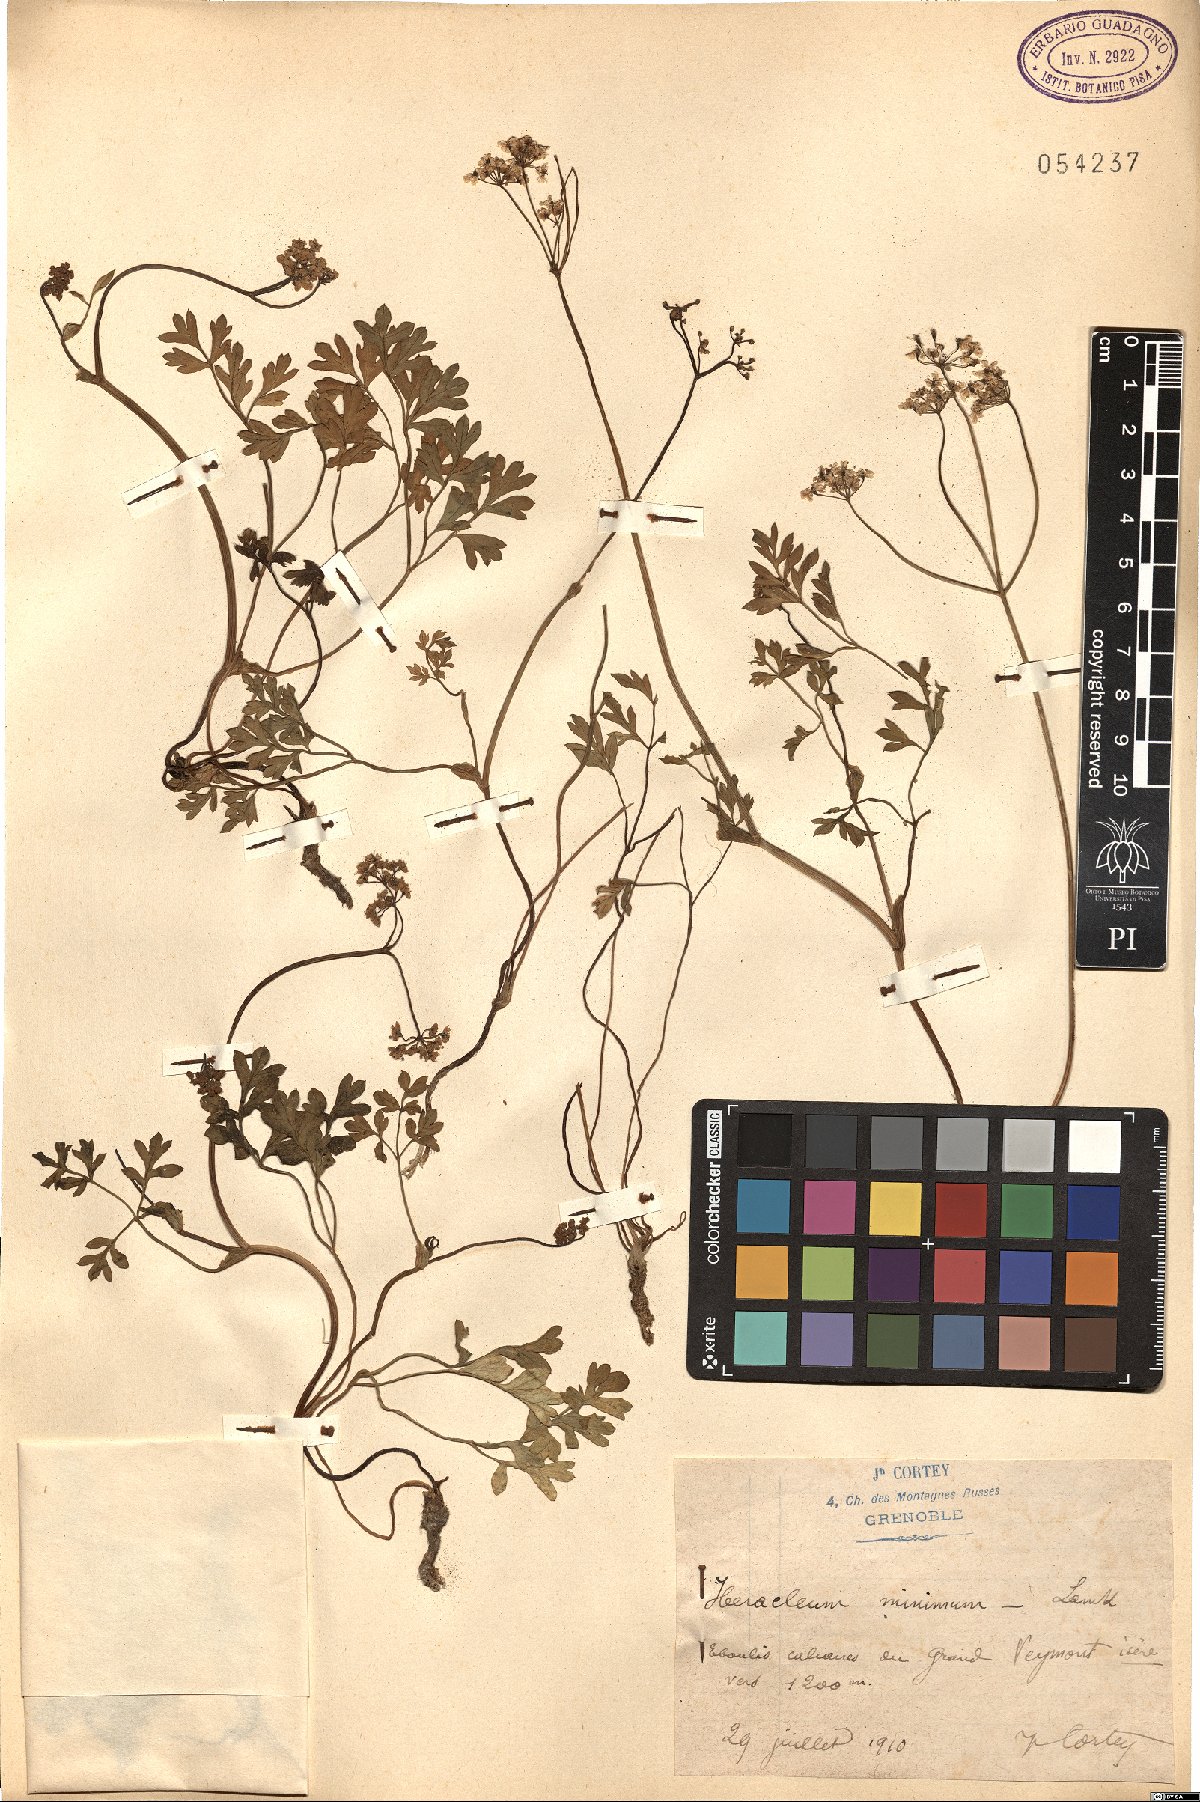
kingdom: Plantae
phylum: Tracheophyta
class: Magnoliopsida
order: Apiales
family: Apiaceae
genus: Heracleum
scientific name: Heracleum pumilum
